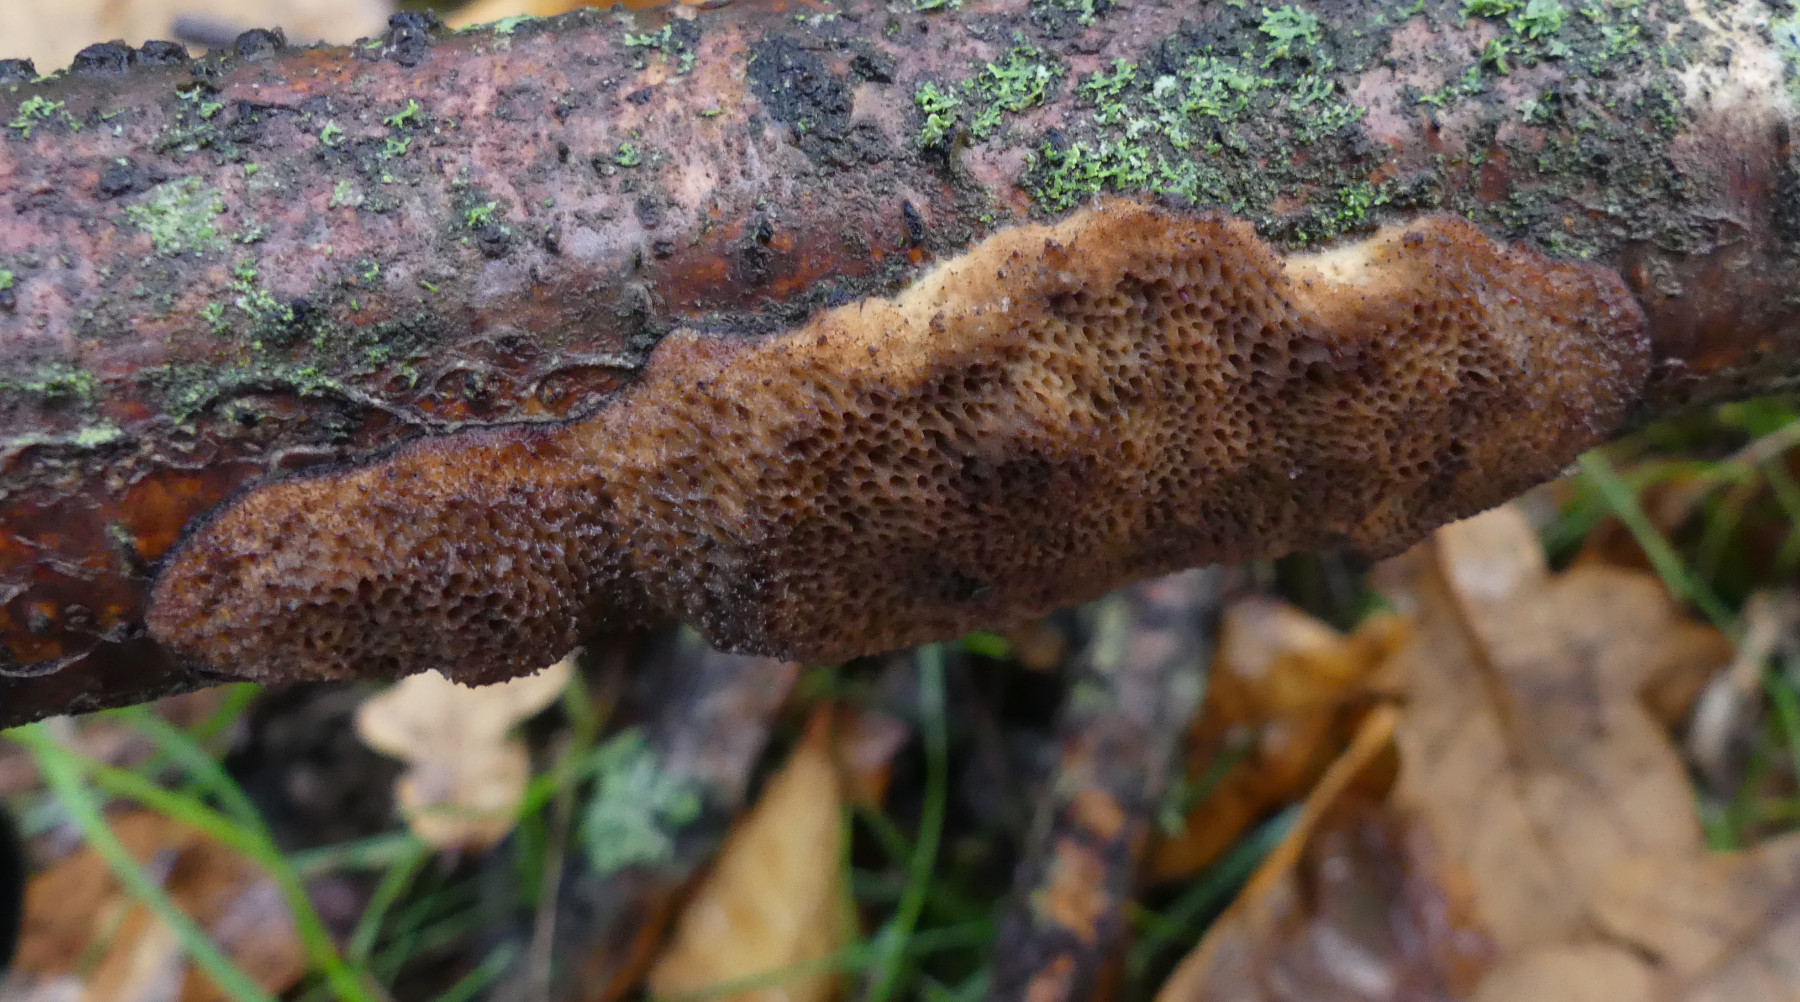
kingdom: Fungi
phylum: Basidiomycota
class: Agaricomycetes
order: Polyporales
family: Polyporaceae
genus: Szczepkamyces
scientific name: Szczepkamyces campestris
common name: hasselporesvamp
